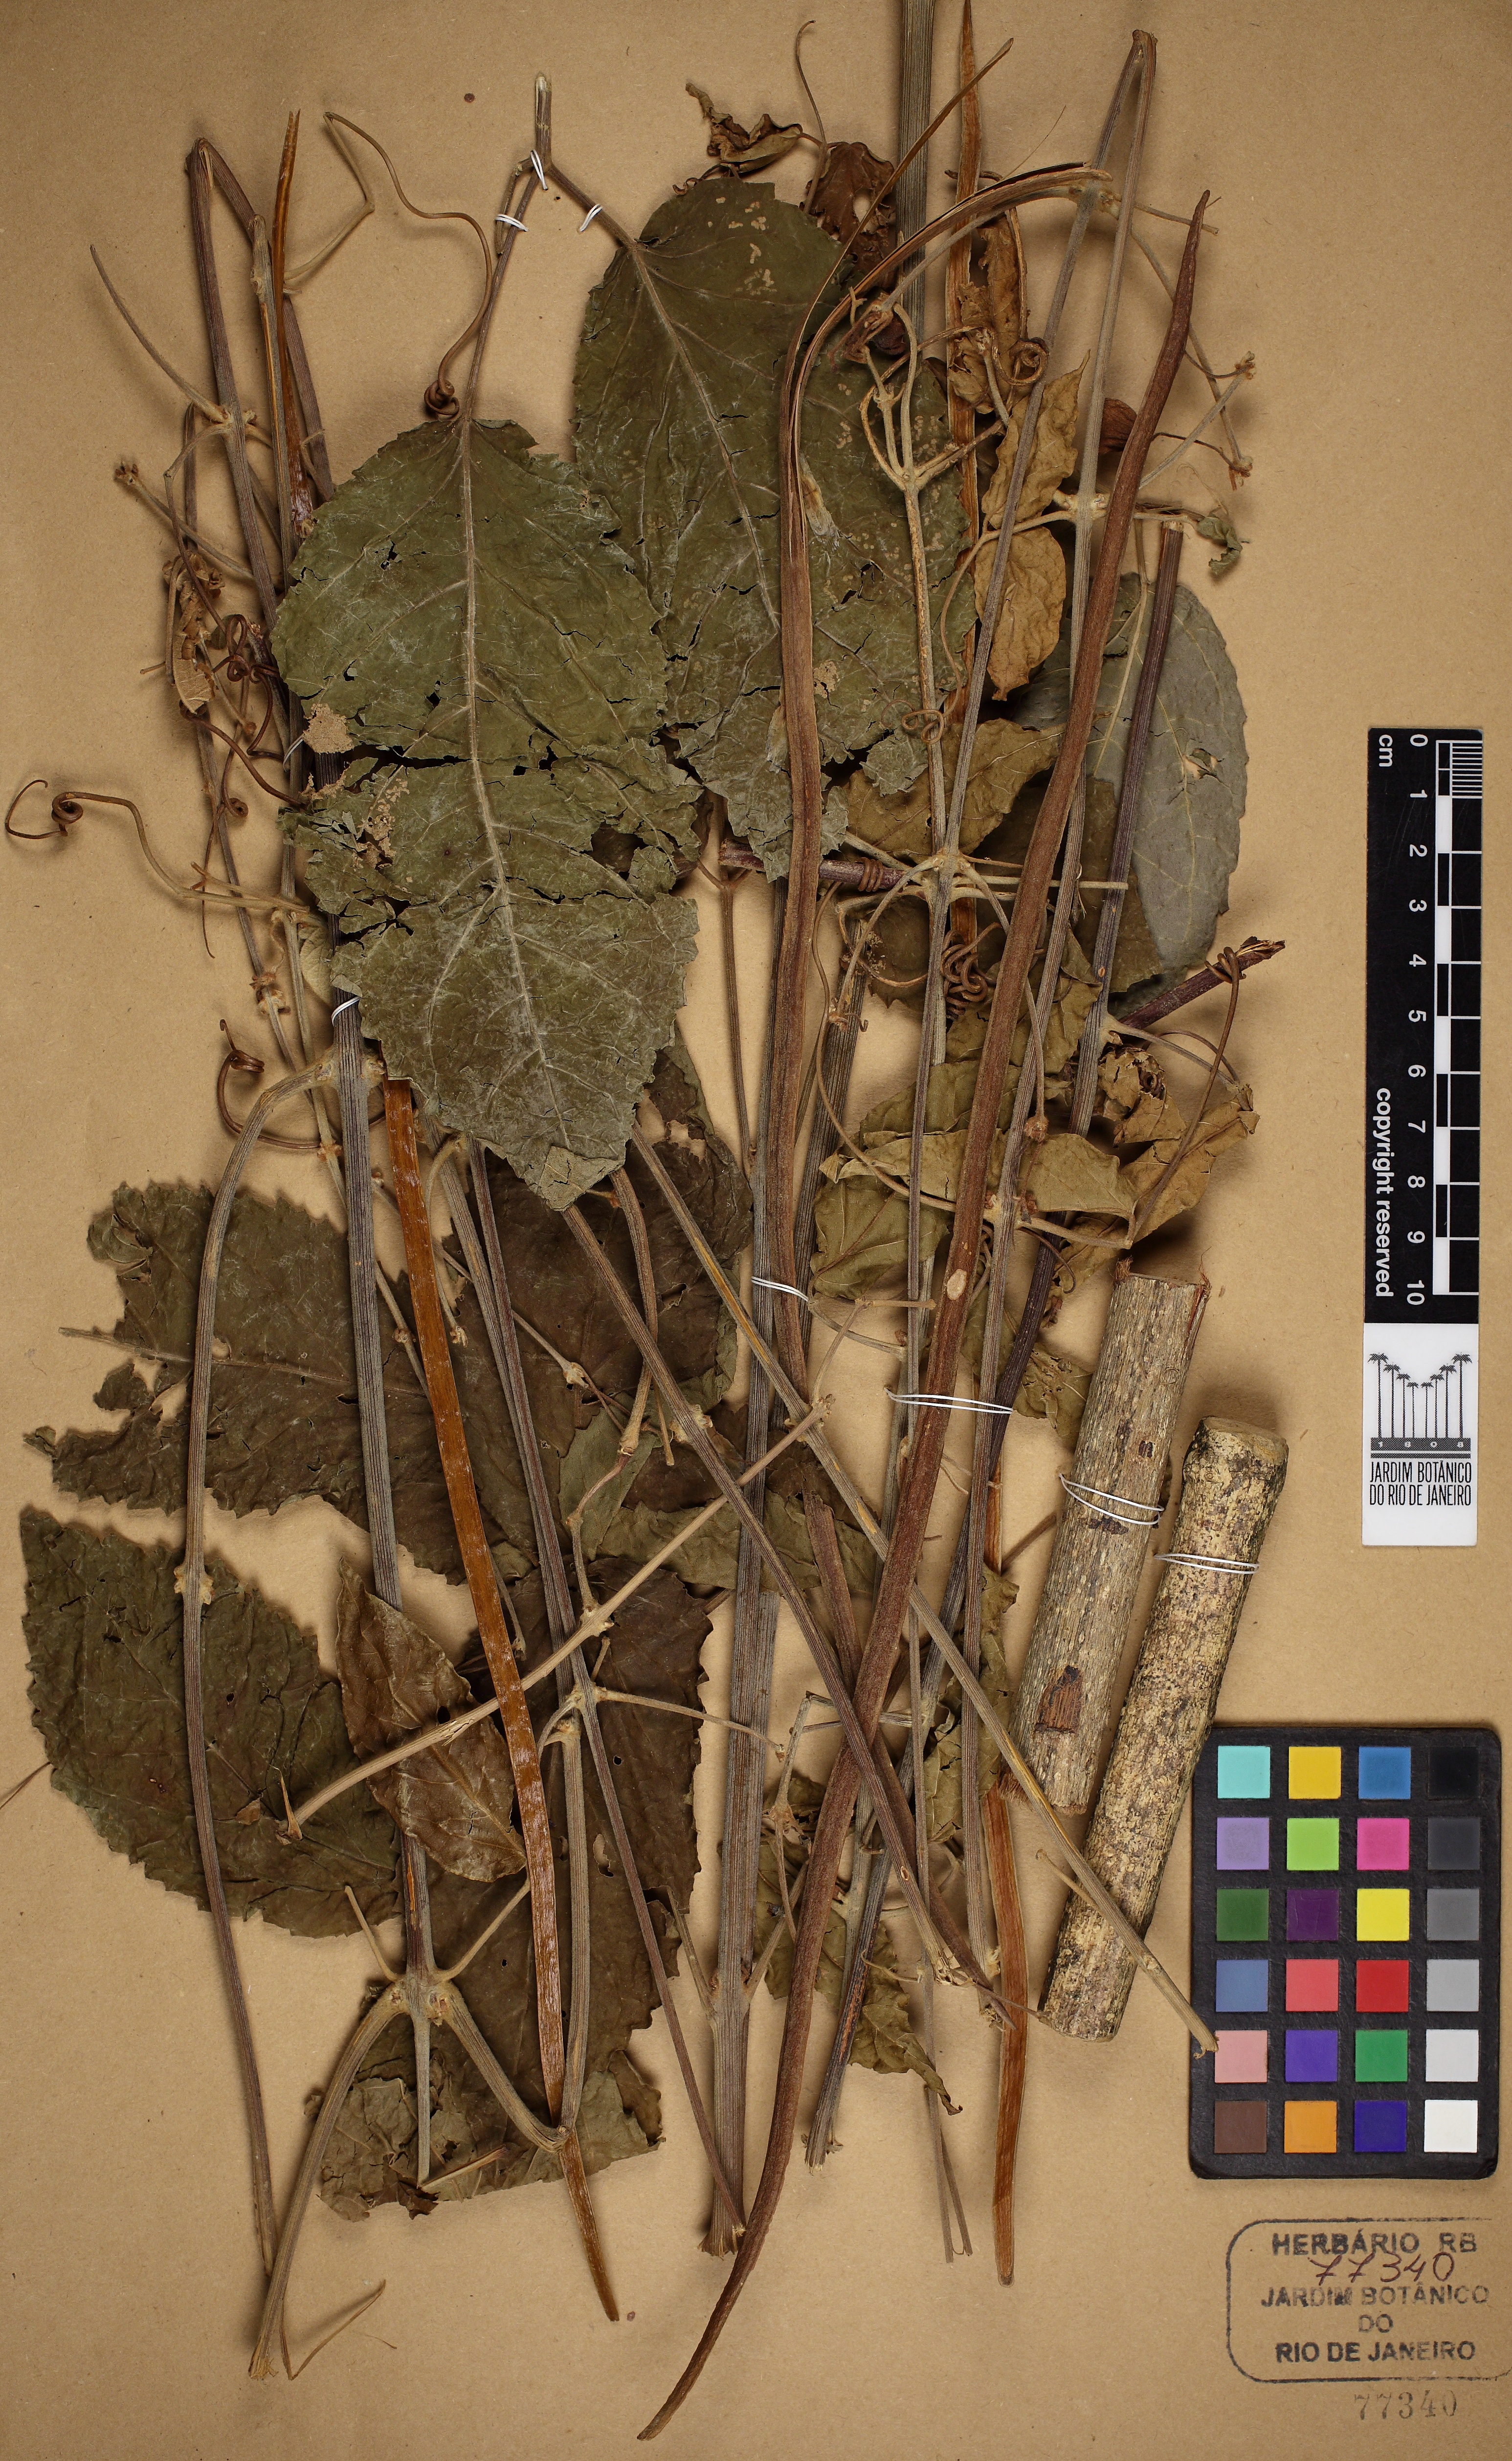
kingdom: Plantae
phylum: Tracheophyta
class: Magnoliopsida
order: Lamiales
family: Bignoniaceae
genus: Stizophyllum
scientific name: Stizophyllum perforatum
